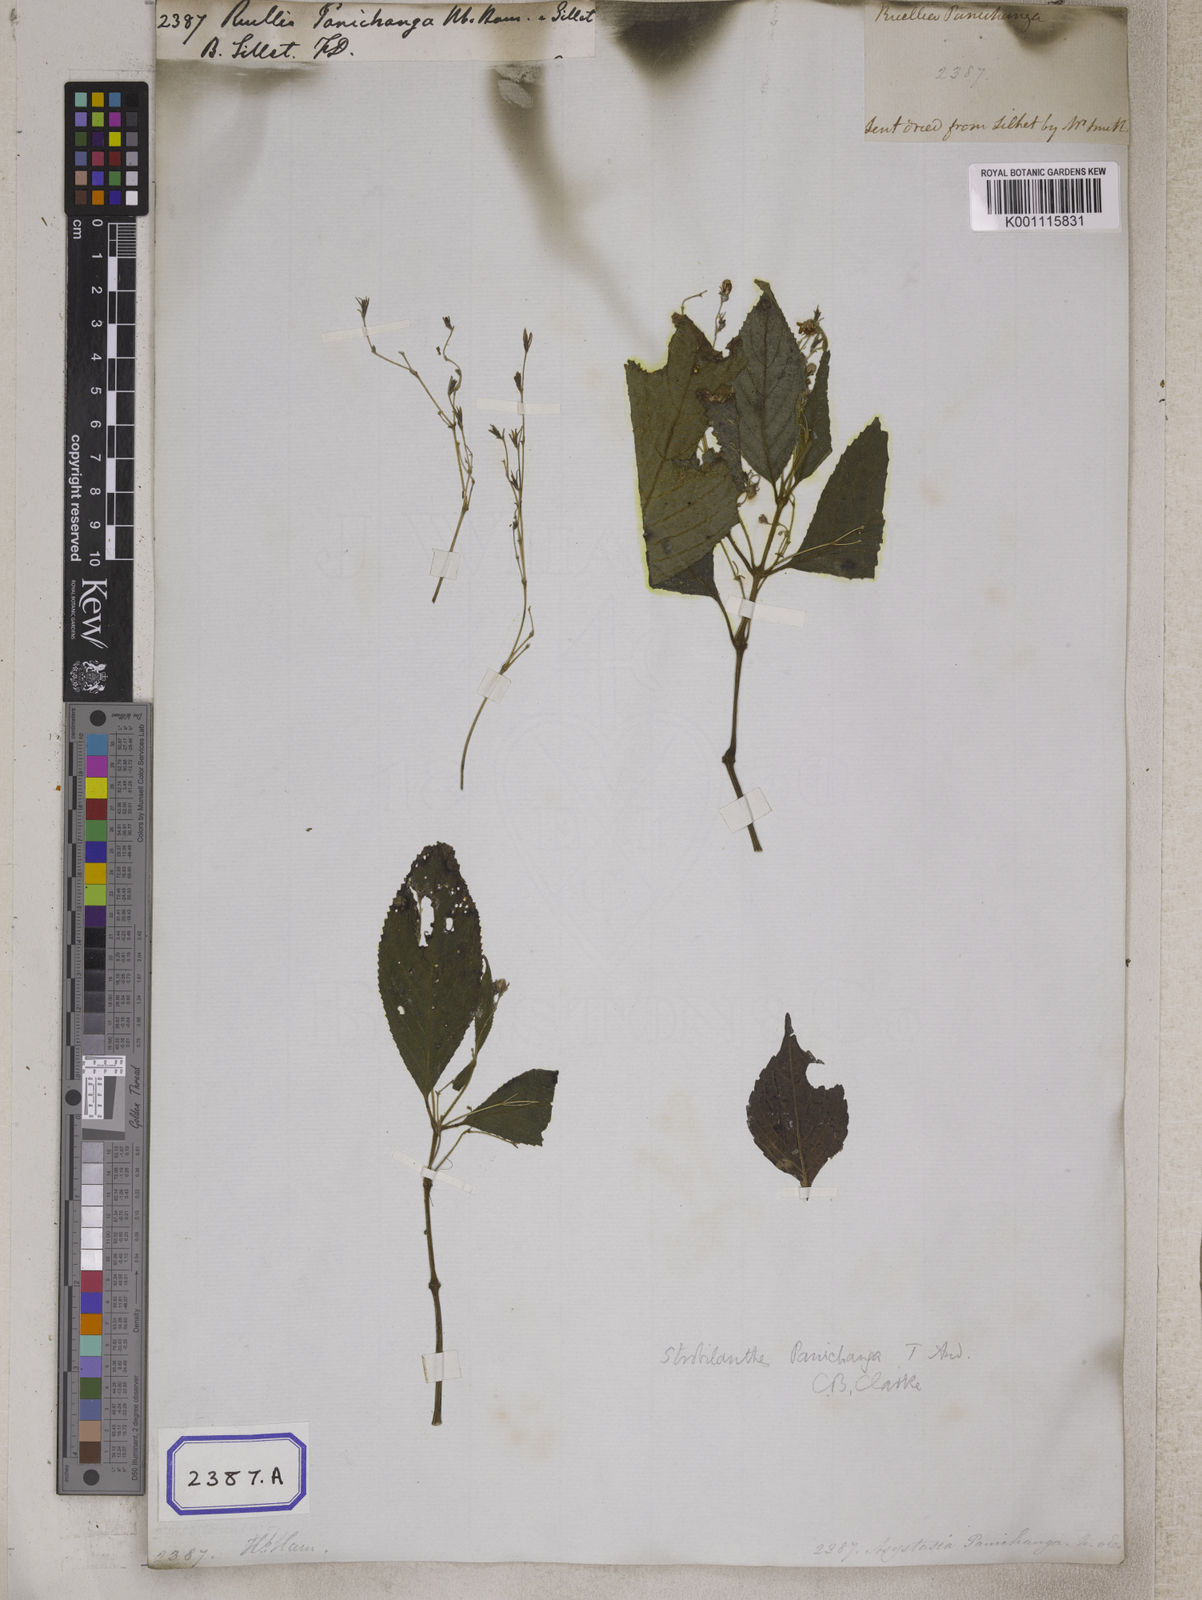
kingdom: Plantae
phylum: Tracheophyta
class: Magnoliopsida
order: Lamiales
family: Acanthaceae
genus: Strobilanthes
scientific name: Strobilanthes panichanga
